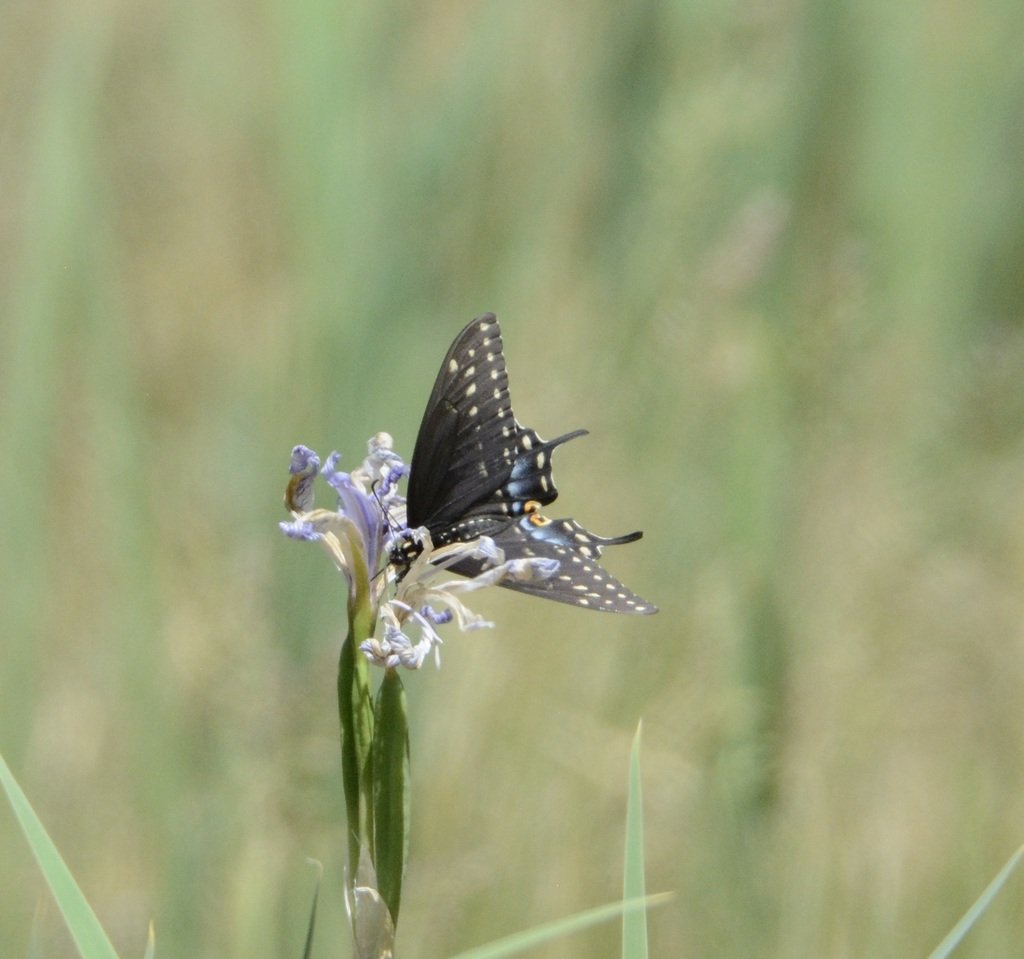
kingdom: Animalia
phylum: Arthropoda
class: Insecta
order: Lepidoptera
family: Papilionidae
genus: Papilio
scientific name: Papilio polyxenes
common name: Black Swallowtail
